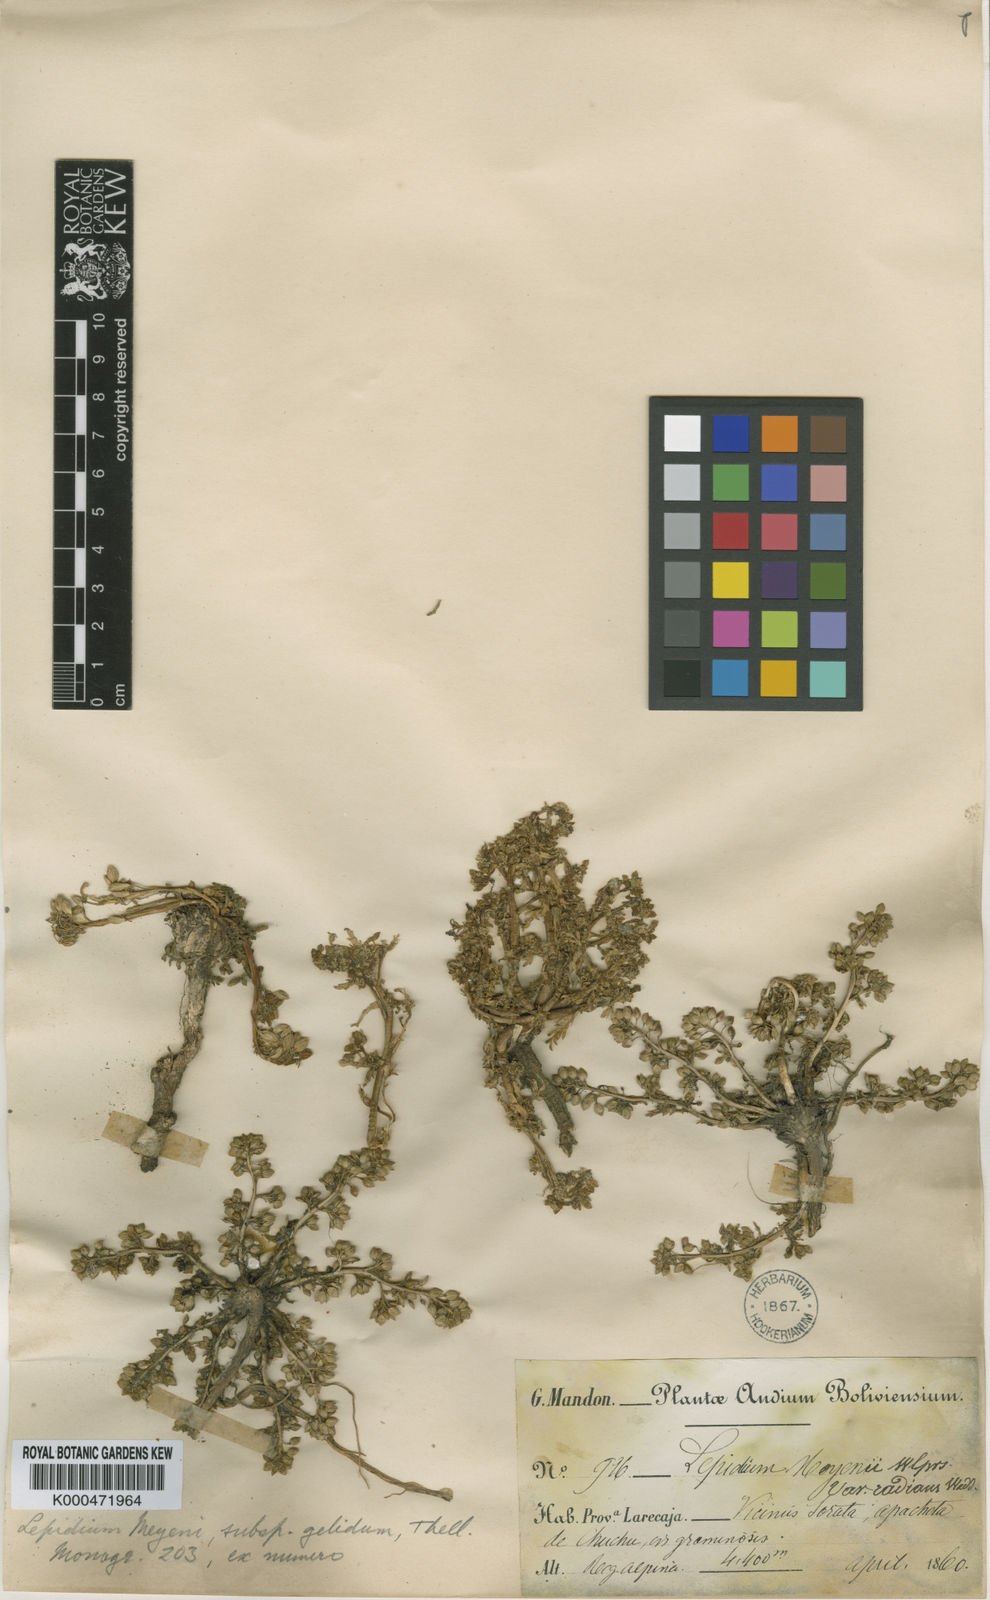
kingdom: Plantae
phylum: Tracheophyta
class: Magnoliopsida
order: Brassicales
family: Brassicaceae
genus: Lepidium
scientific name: Lepidium meyenii
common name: Peruvian-ginseng
